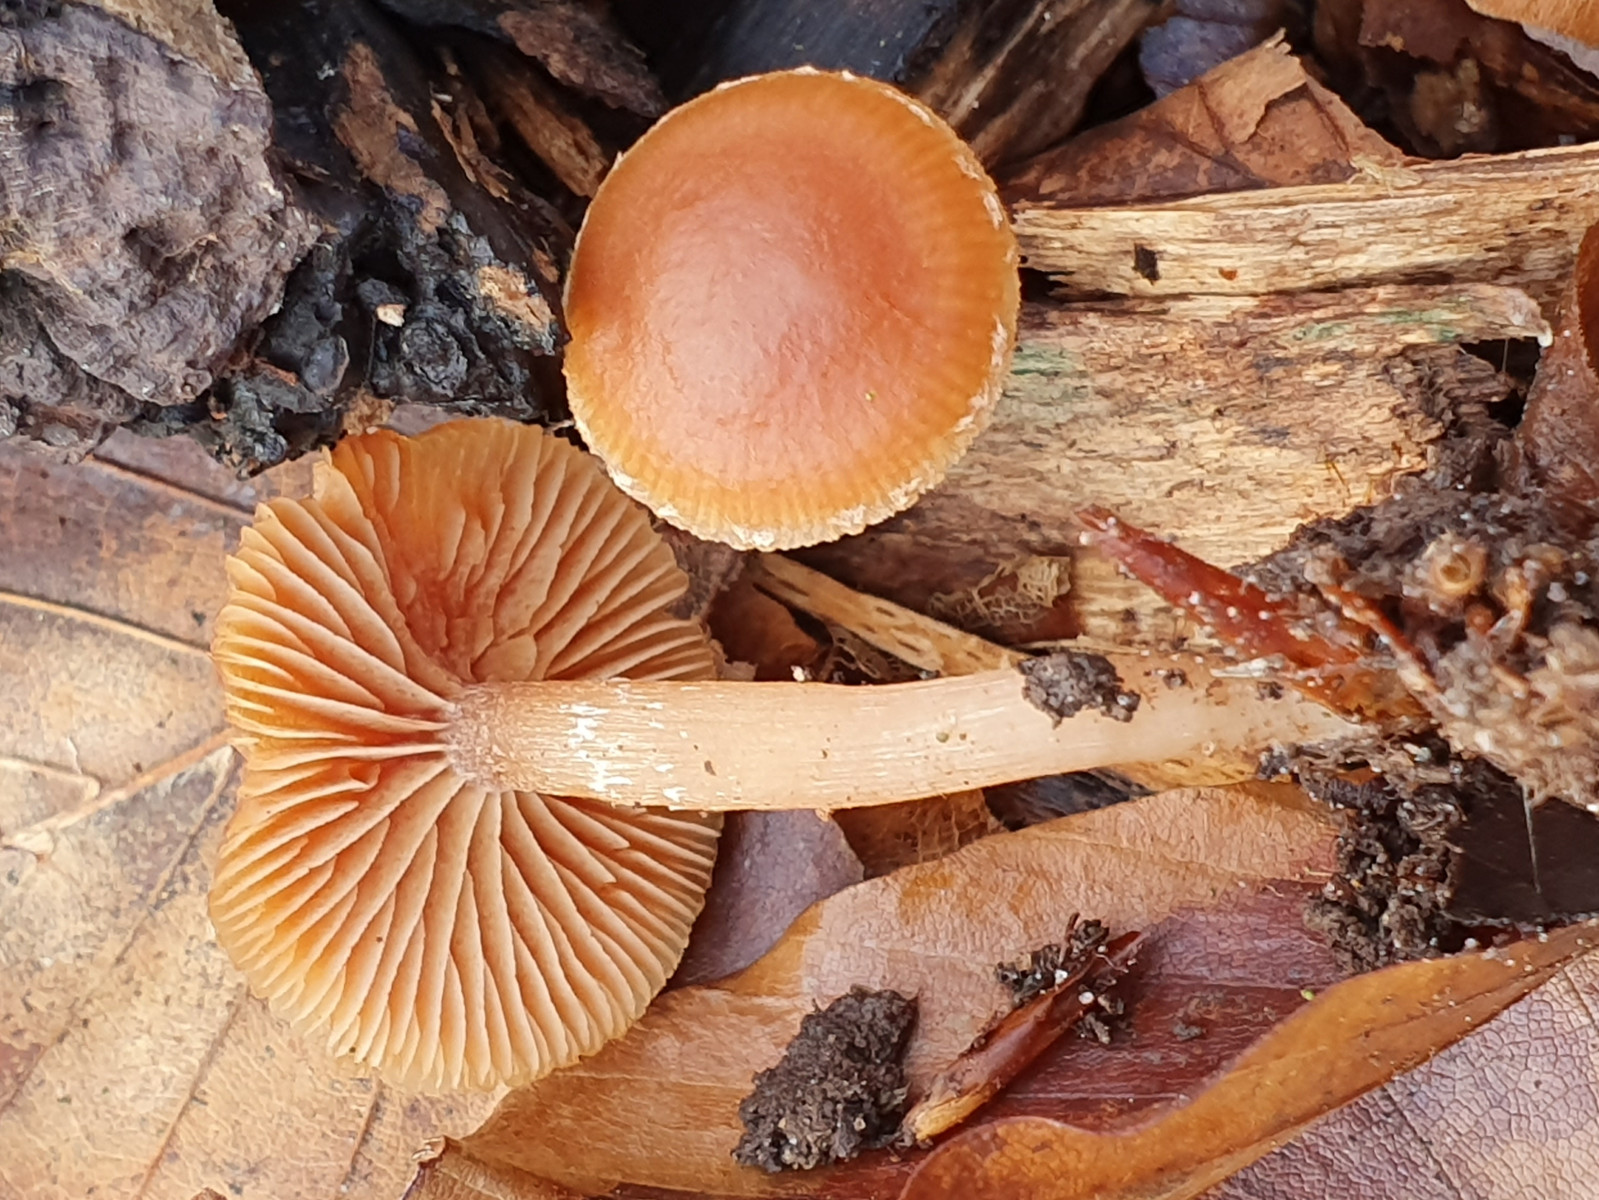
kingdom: Fungi
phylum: Basidiomycota
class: Agaricomycetes
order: Agaricales
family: Tubariaceae
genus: Tubaria
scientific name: Tubaria furfuracea
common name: kliddet fnughat
